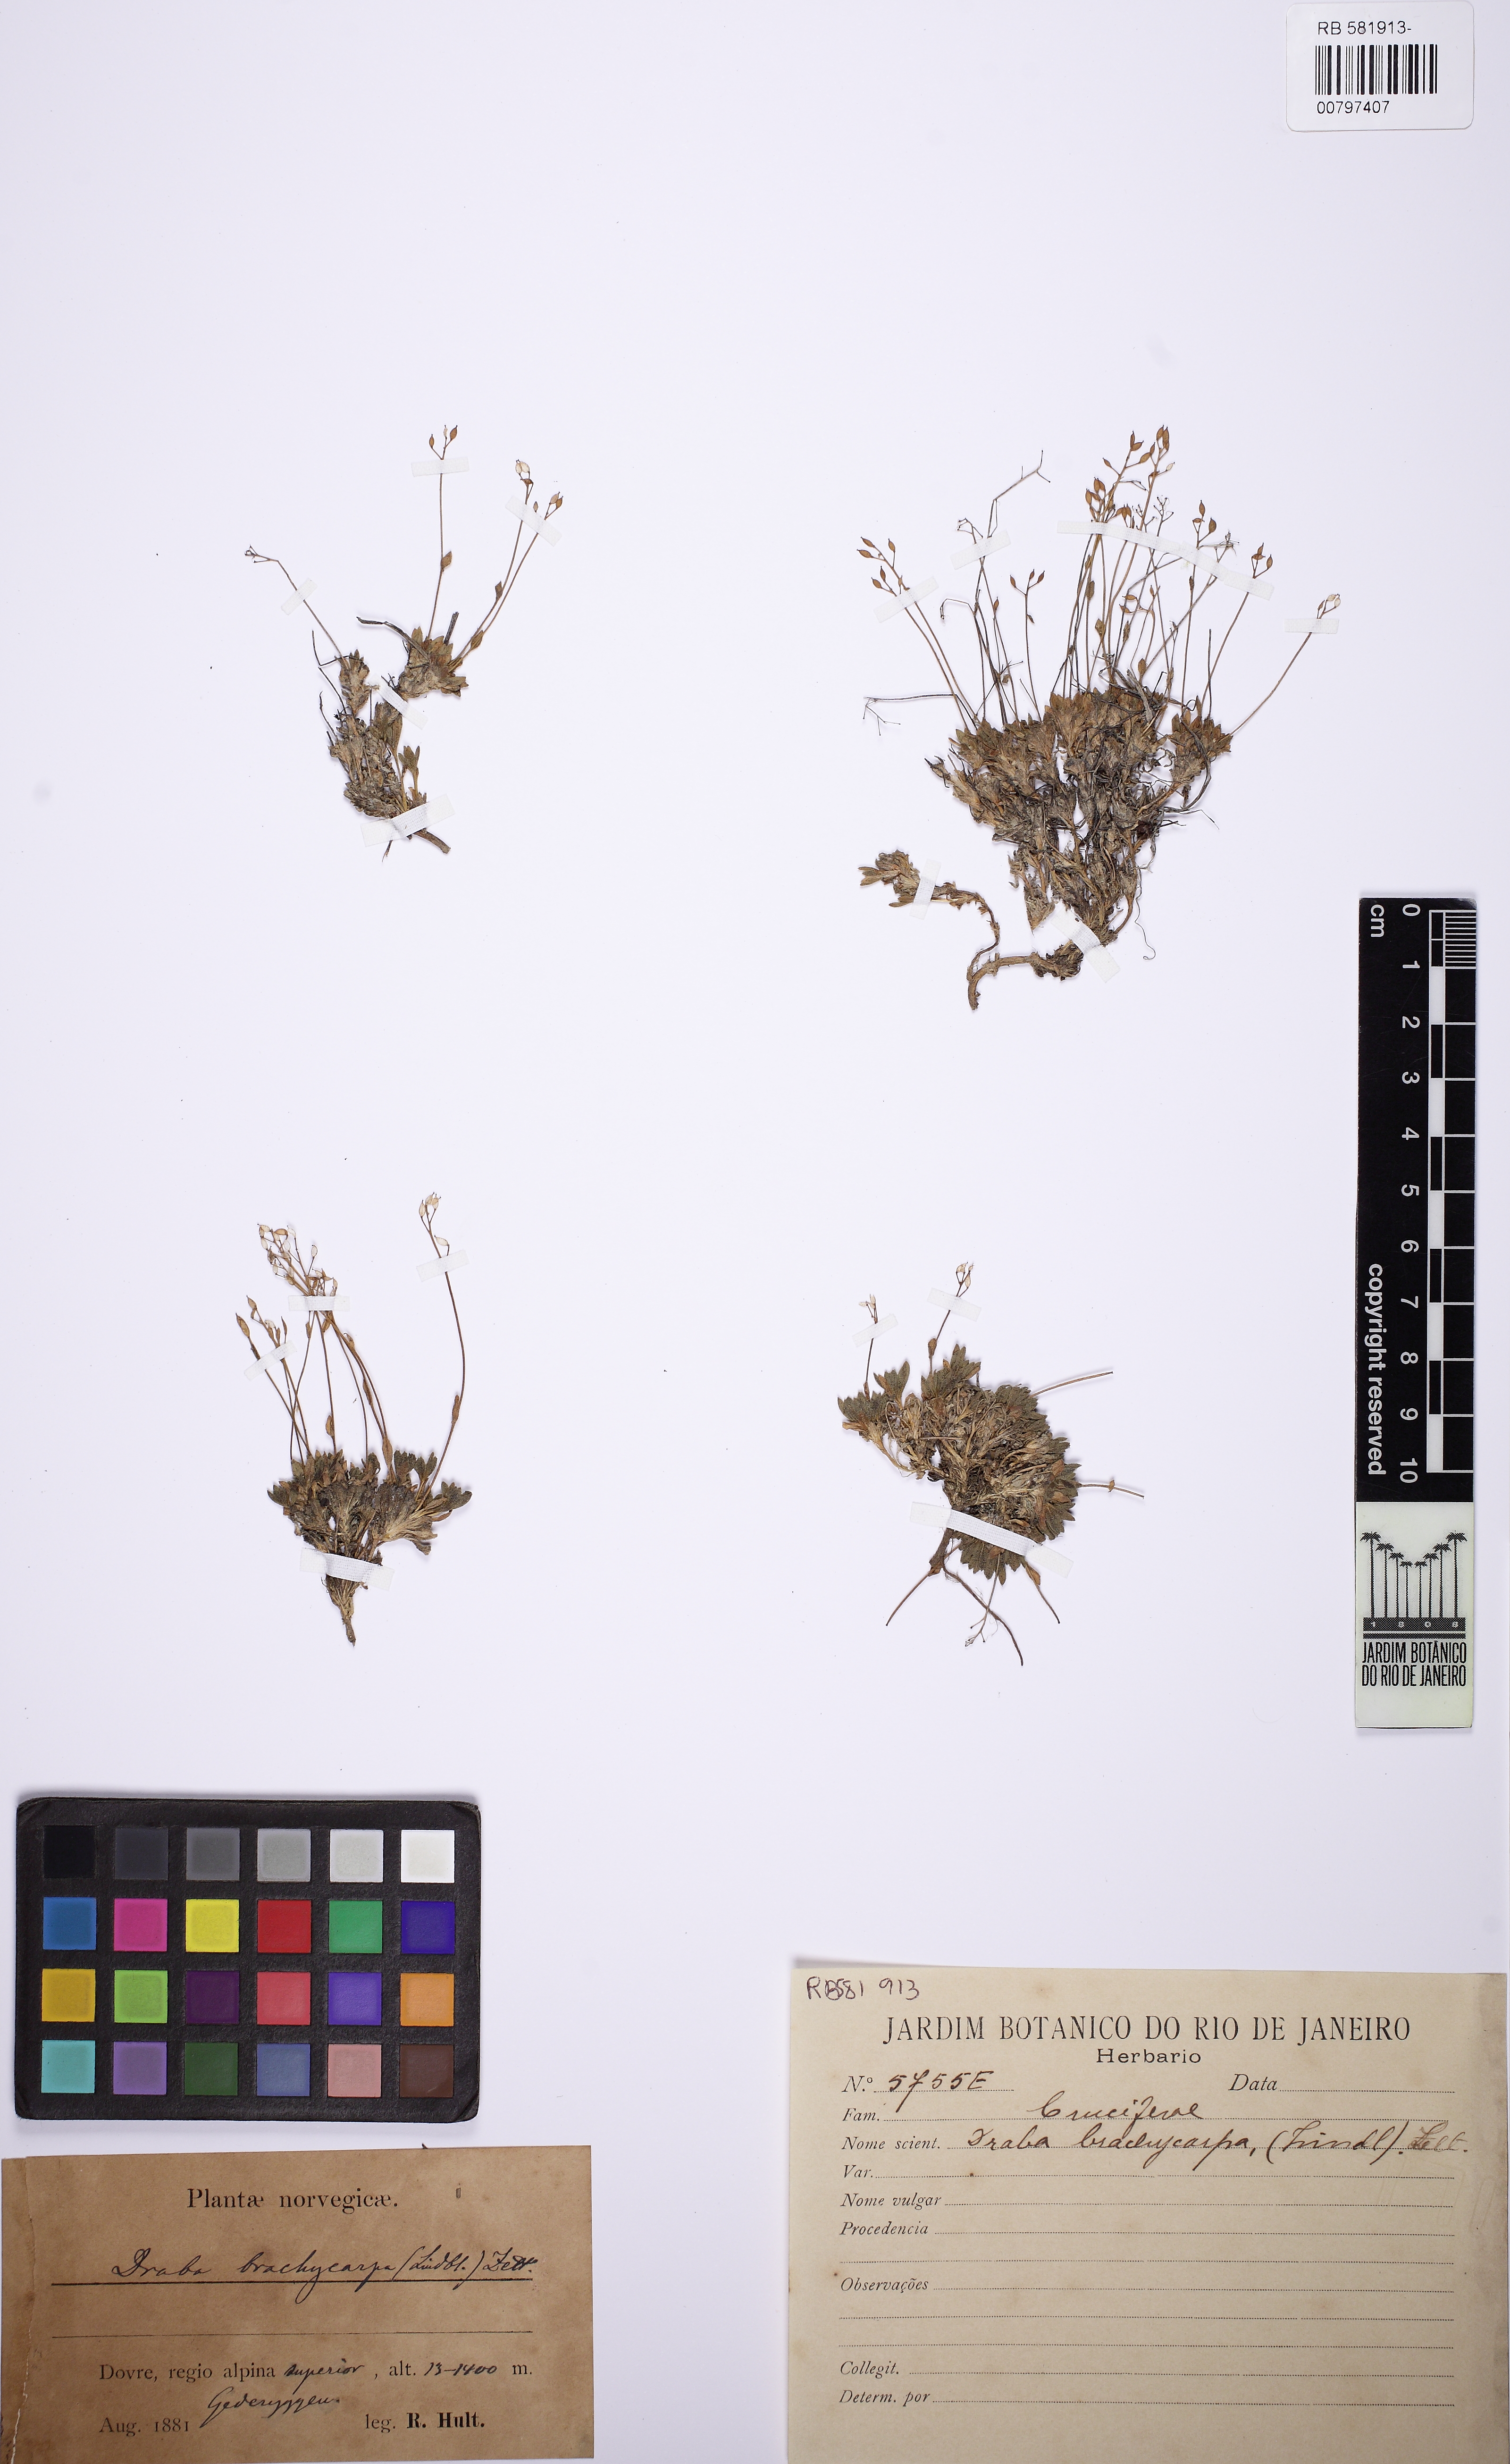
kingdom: Plantae
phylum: Tracheophyta
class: Magnoliopsida
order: Brassicales
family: Brassicaceae
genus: Abdra
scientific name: Abdra brachycarpa
